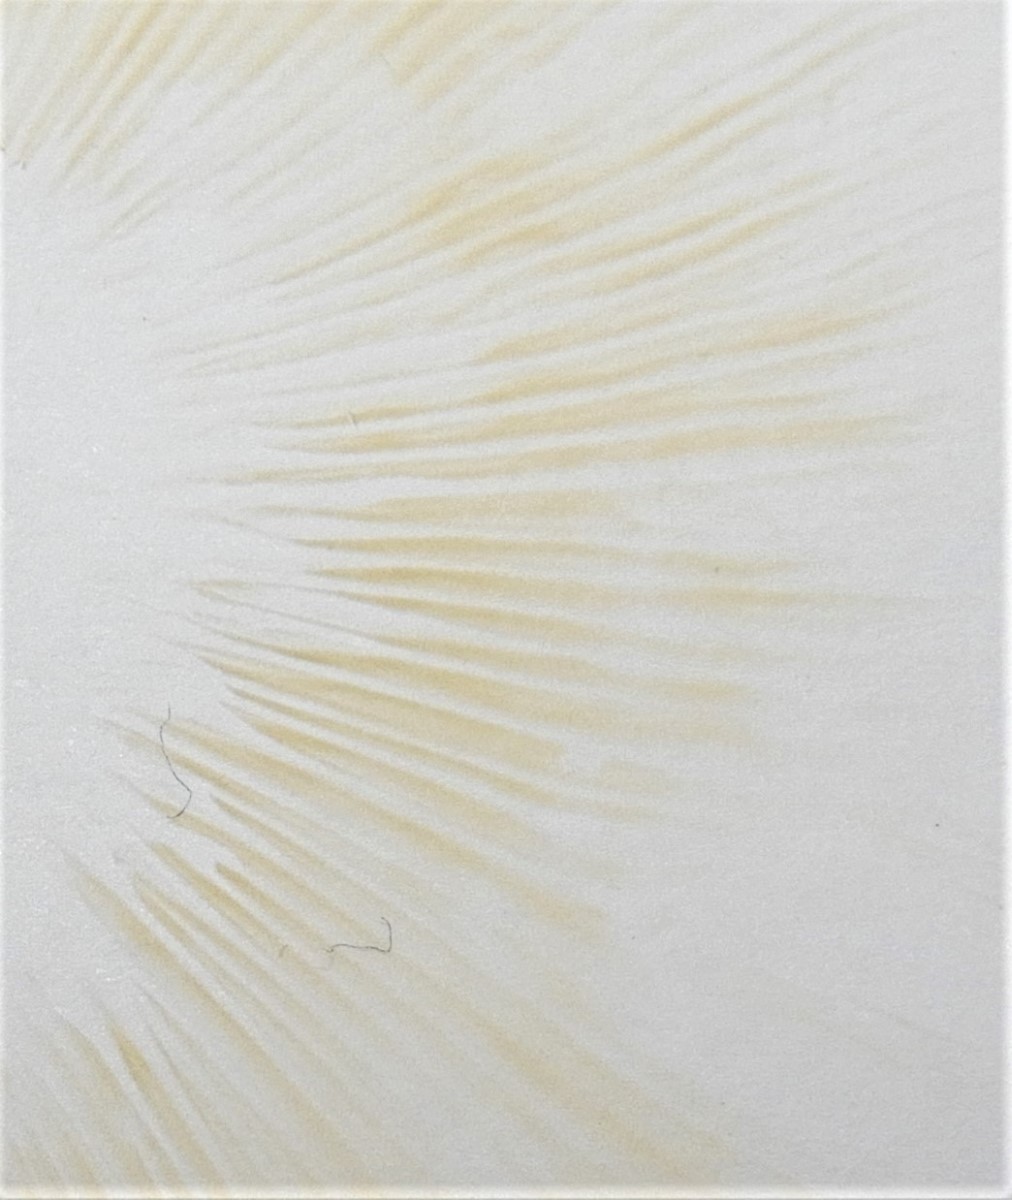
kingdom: Fungi
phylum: Basidiomycota
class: Agaricomycetes
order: Russulales
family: Russulaceae
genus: Russula
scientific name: Russula recondita
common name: mild kam-skørhat
